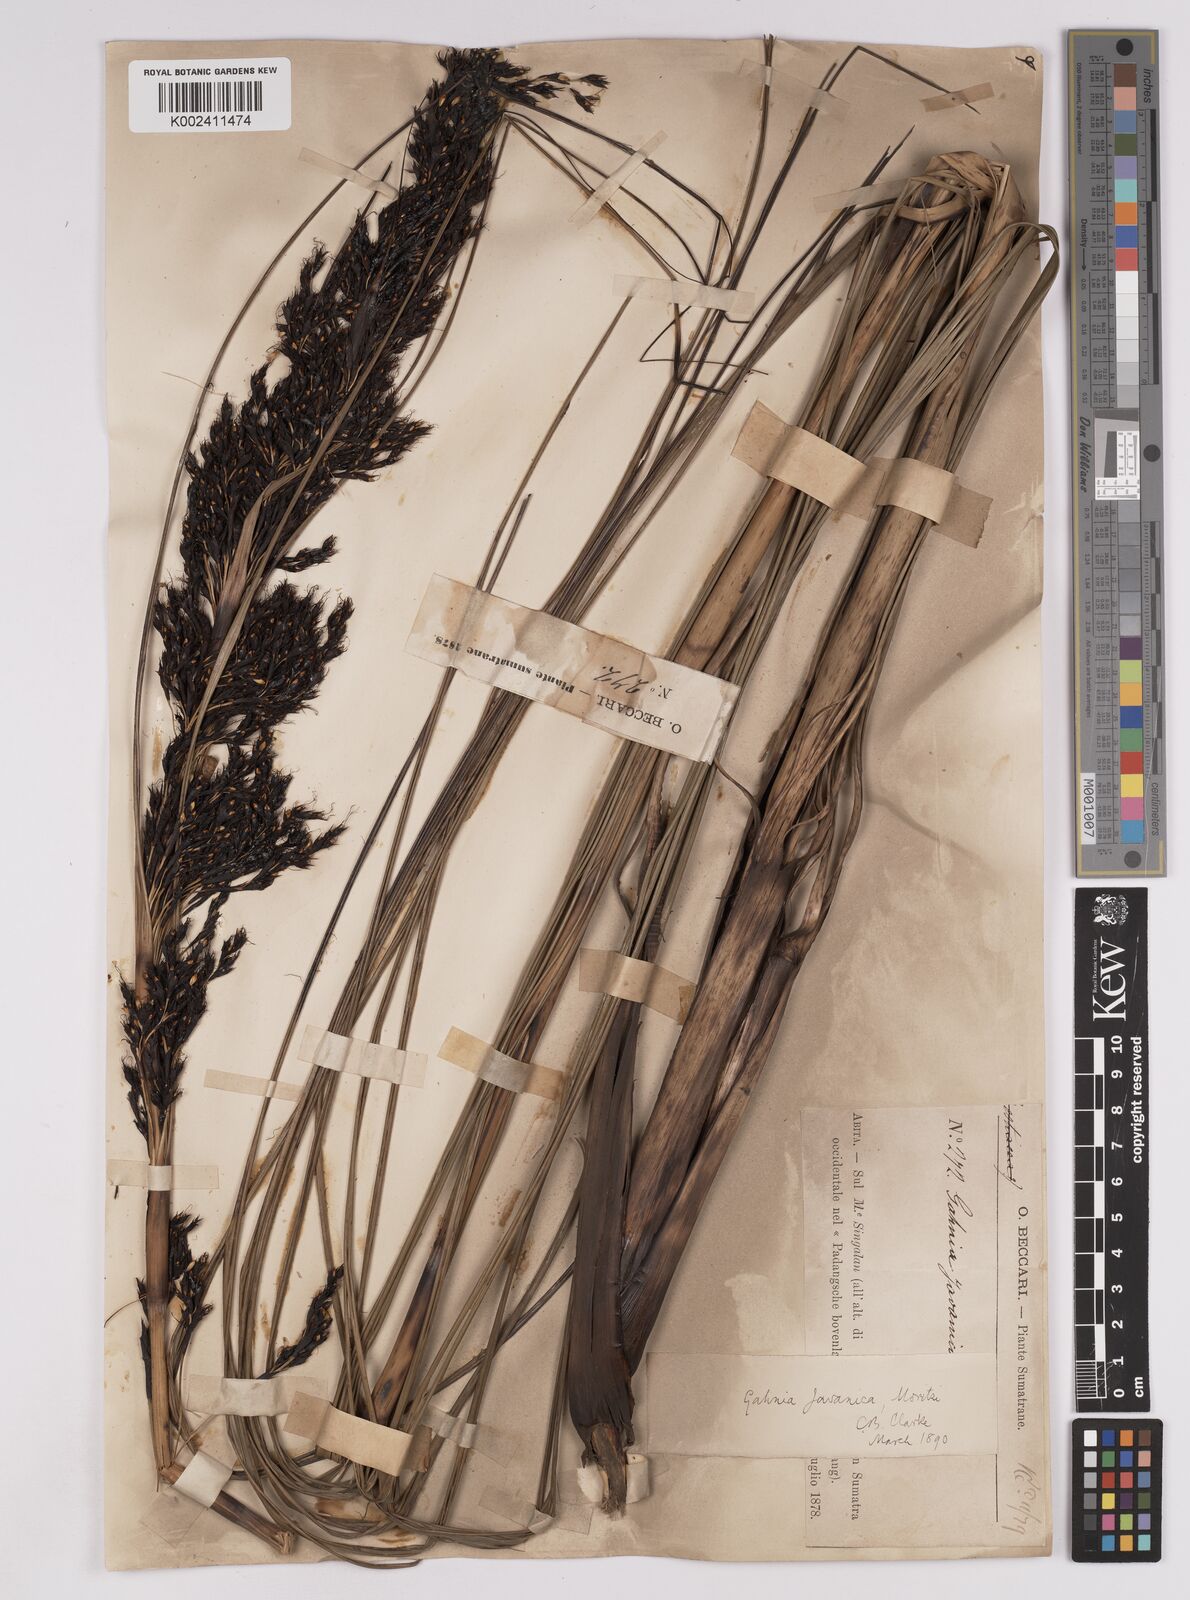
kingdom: Plantae
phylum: Tracheophyta
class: Liliopsida
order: Poales
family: Cyperaceae
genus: Gahnia
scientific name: Gahnia javanica
